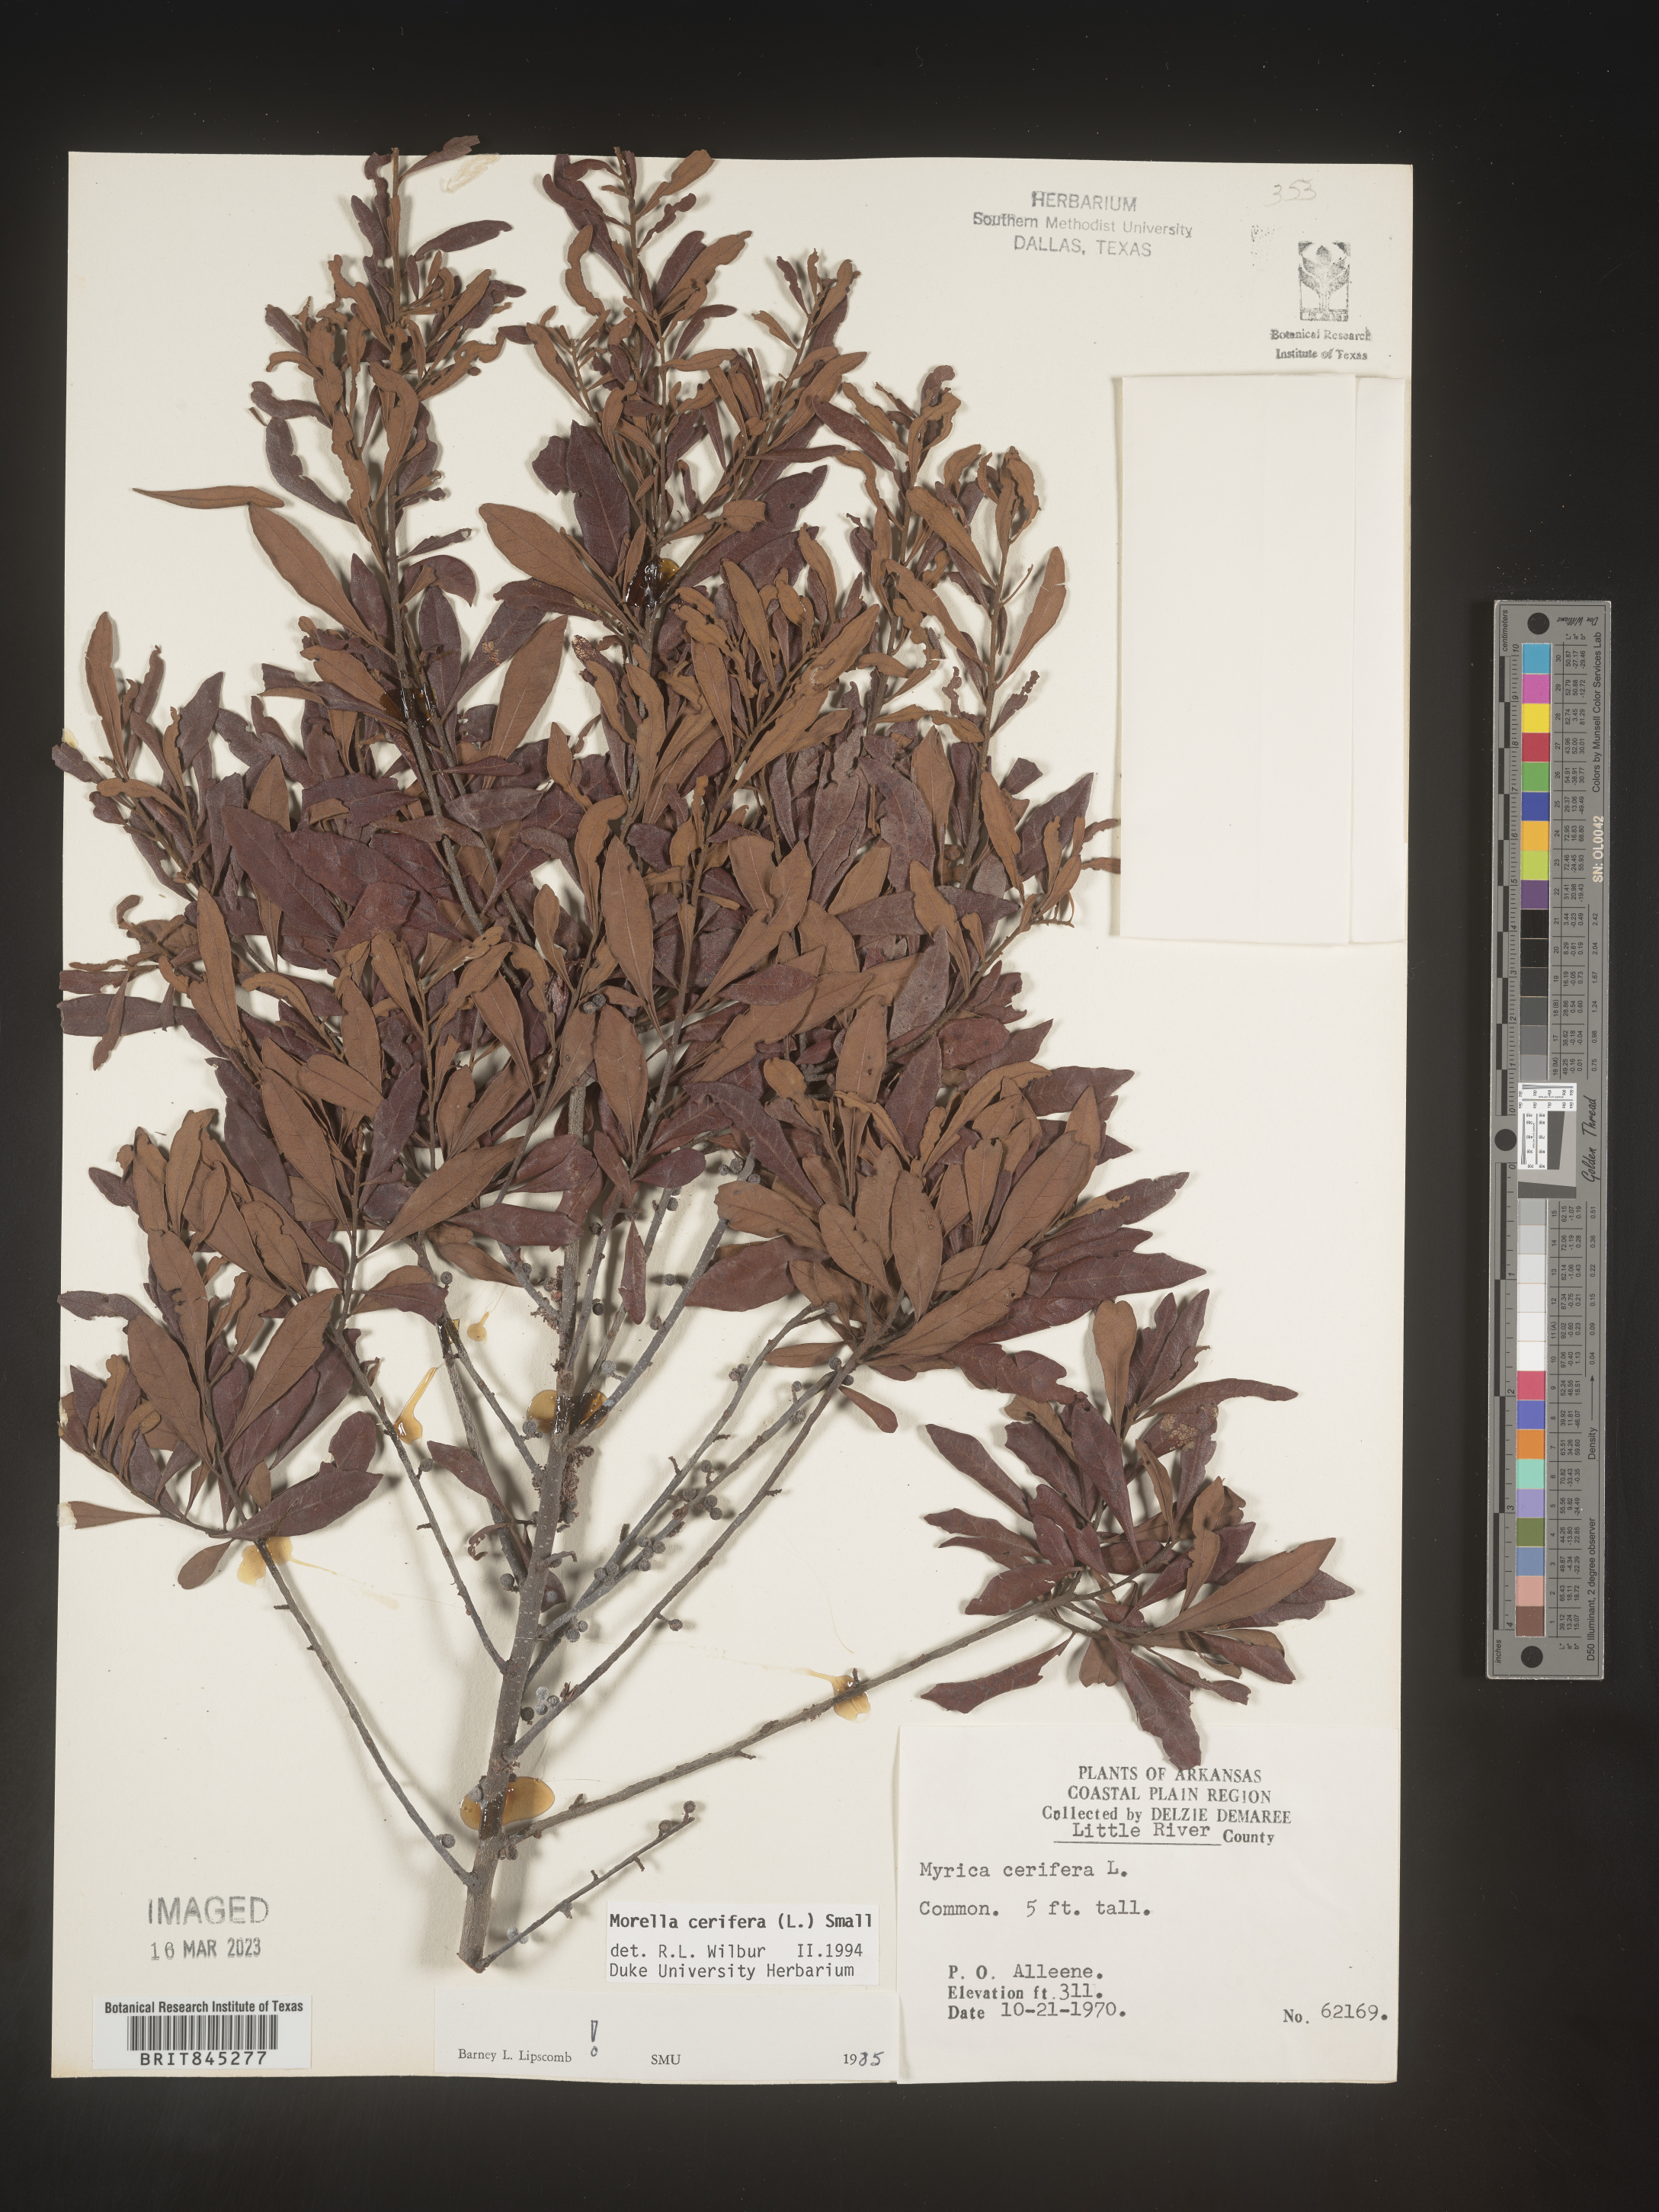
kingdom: Plantae
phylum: Tracheophyta
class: Magnoliopsida
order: Fagales
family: Myricaceae
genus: Morella
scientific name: Morella cerifera
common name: Wax myrtle
